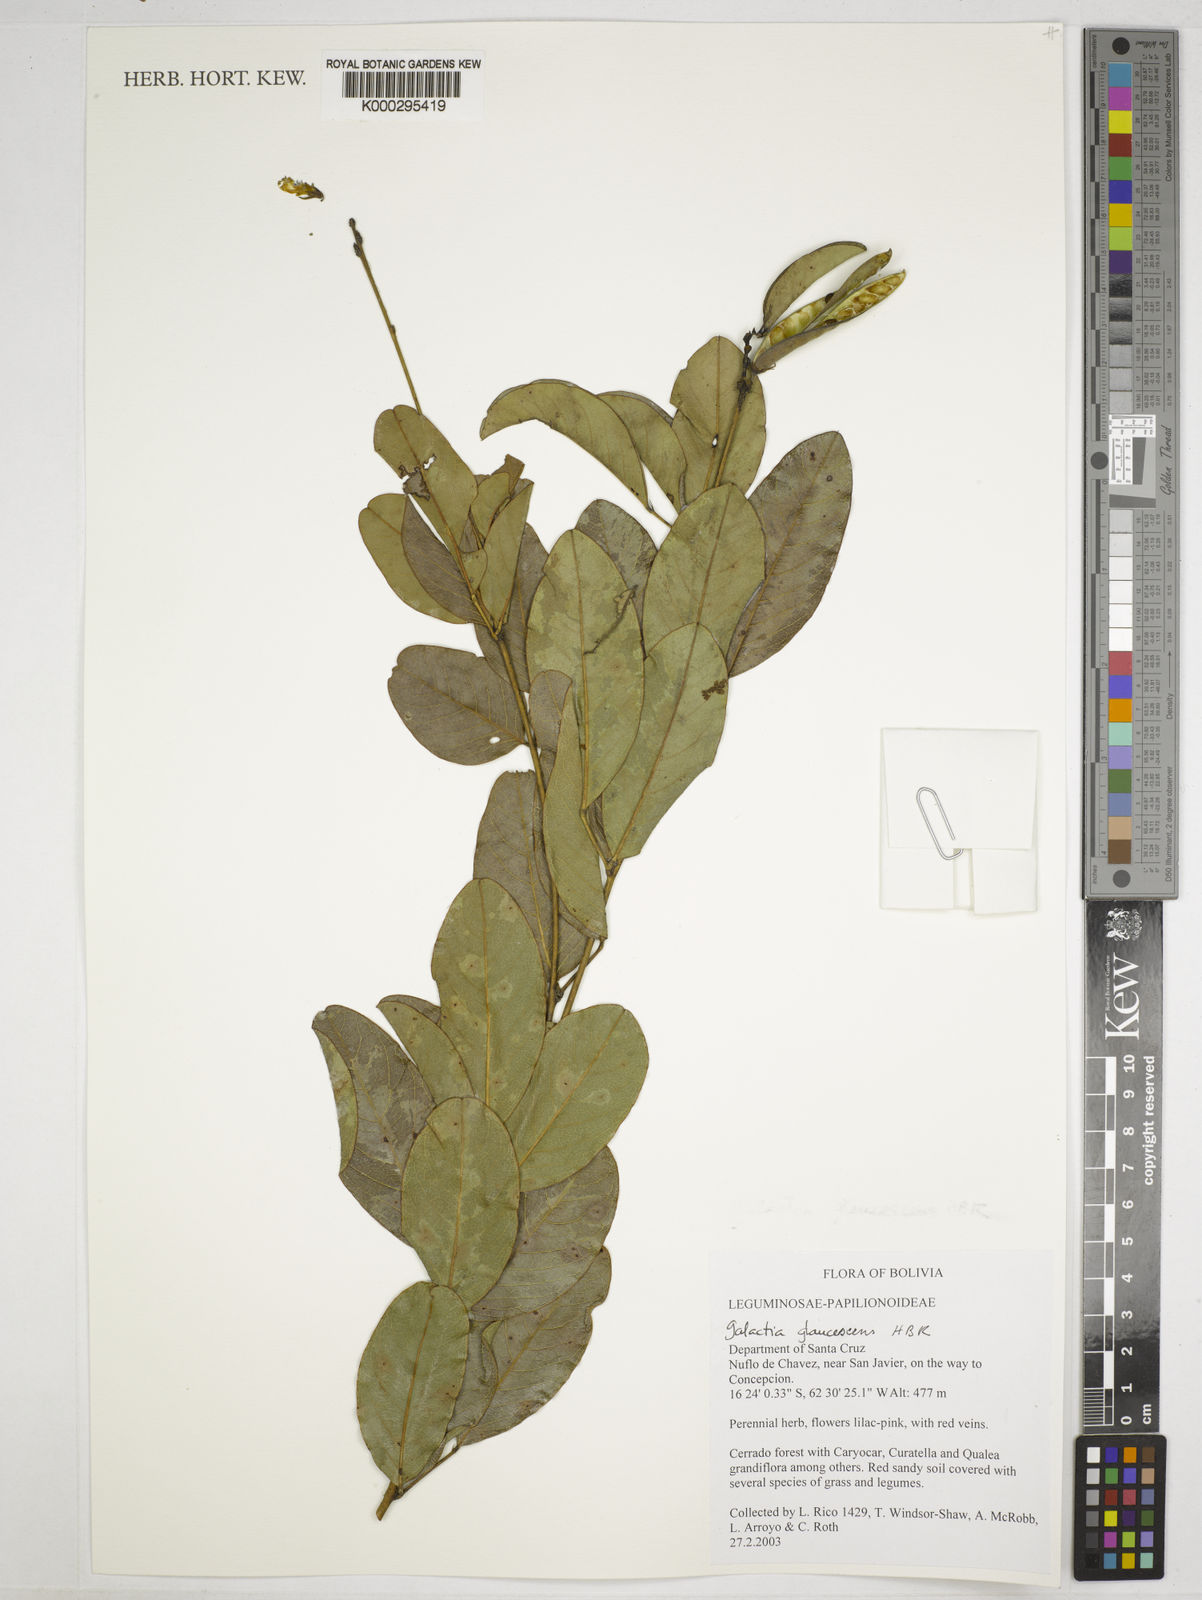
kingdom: Plantae
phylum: Tracheophyta
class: Magnoliopsida
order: Fabales
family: Fabaceae
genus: Galactia
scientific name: Galactia
